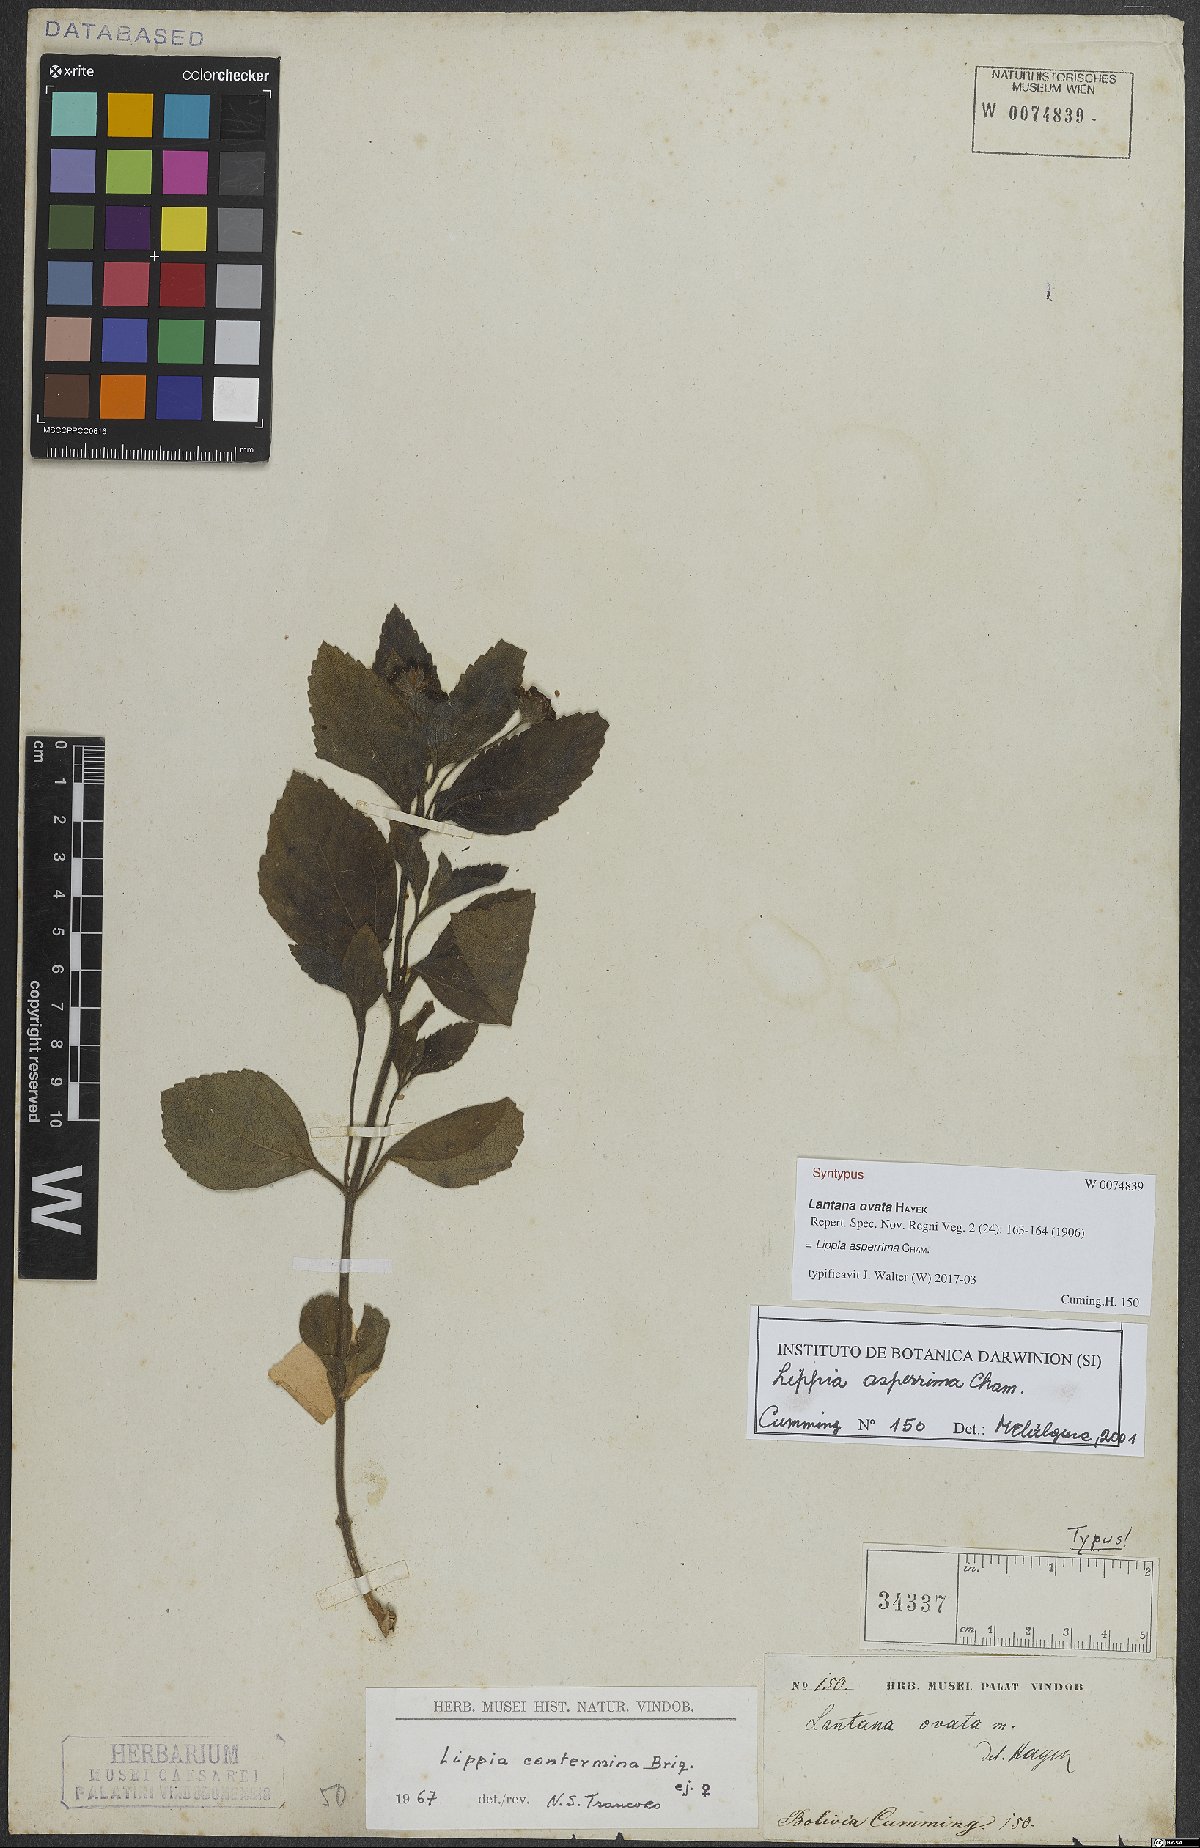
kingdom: Plantae
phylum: Tracheophyta
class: Magnoliopsida
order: Lamiales
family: Verbenaceae
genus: Lippia
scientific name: Lippia asperrima
